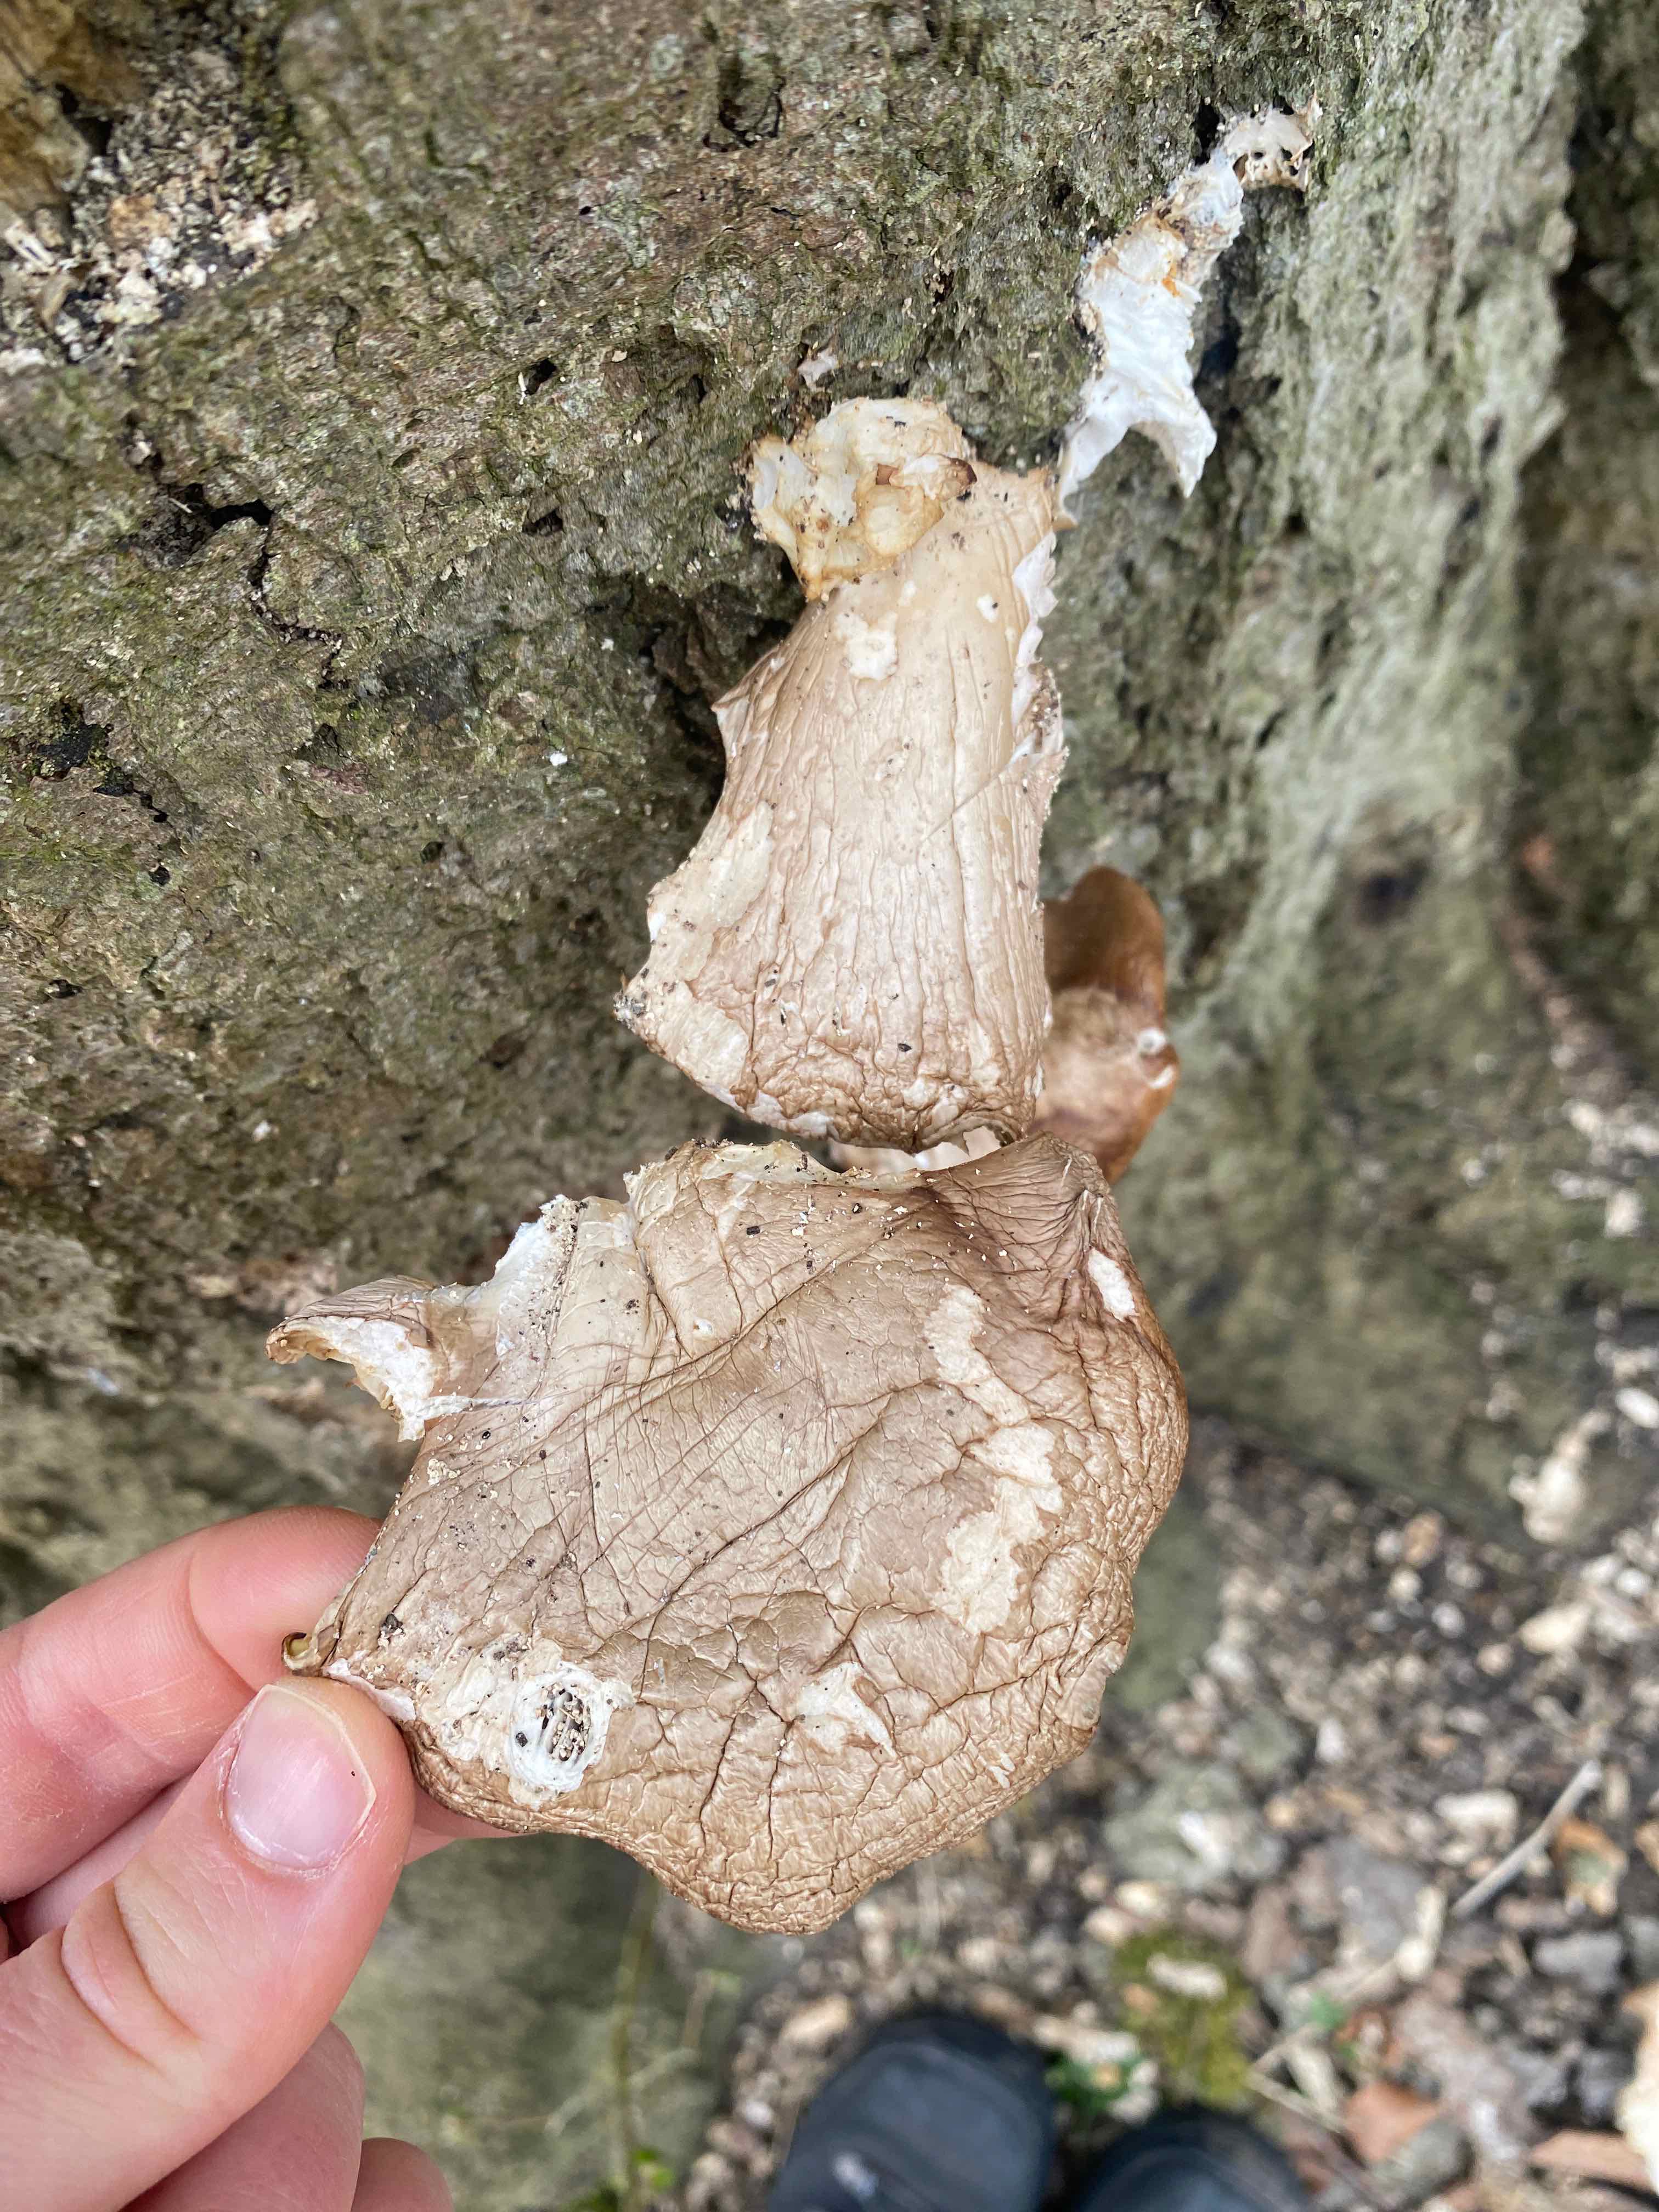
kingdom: Fungi
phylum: Basidiomycota
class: Agaricomycetes
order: Agaricales
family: Pleurotaceae
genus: Pleurotus
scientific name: Pleurotus ostreatus
